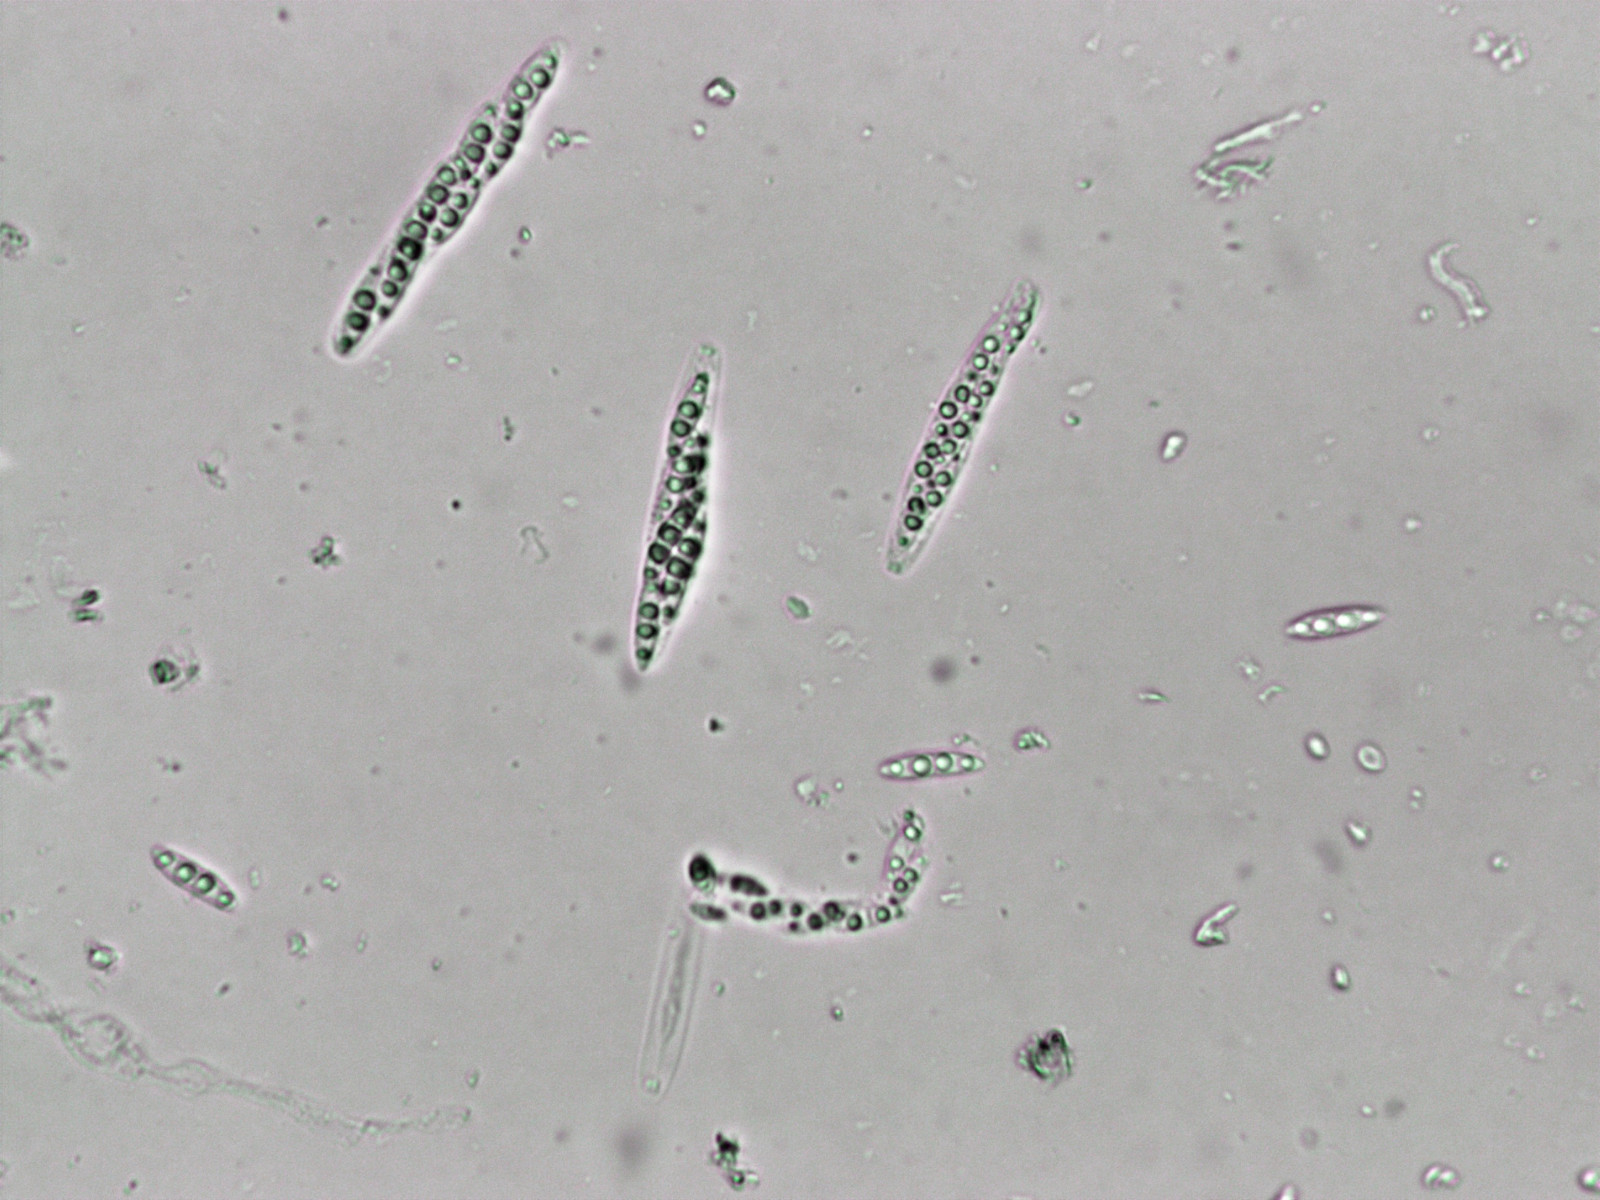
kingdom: Fungi
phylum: Ascomycota
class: Sordariomycetes
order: Diaporthales
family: Diaporthaceae
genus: Diaporthe
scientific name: Diaporthe strumella
